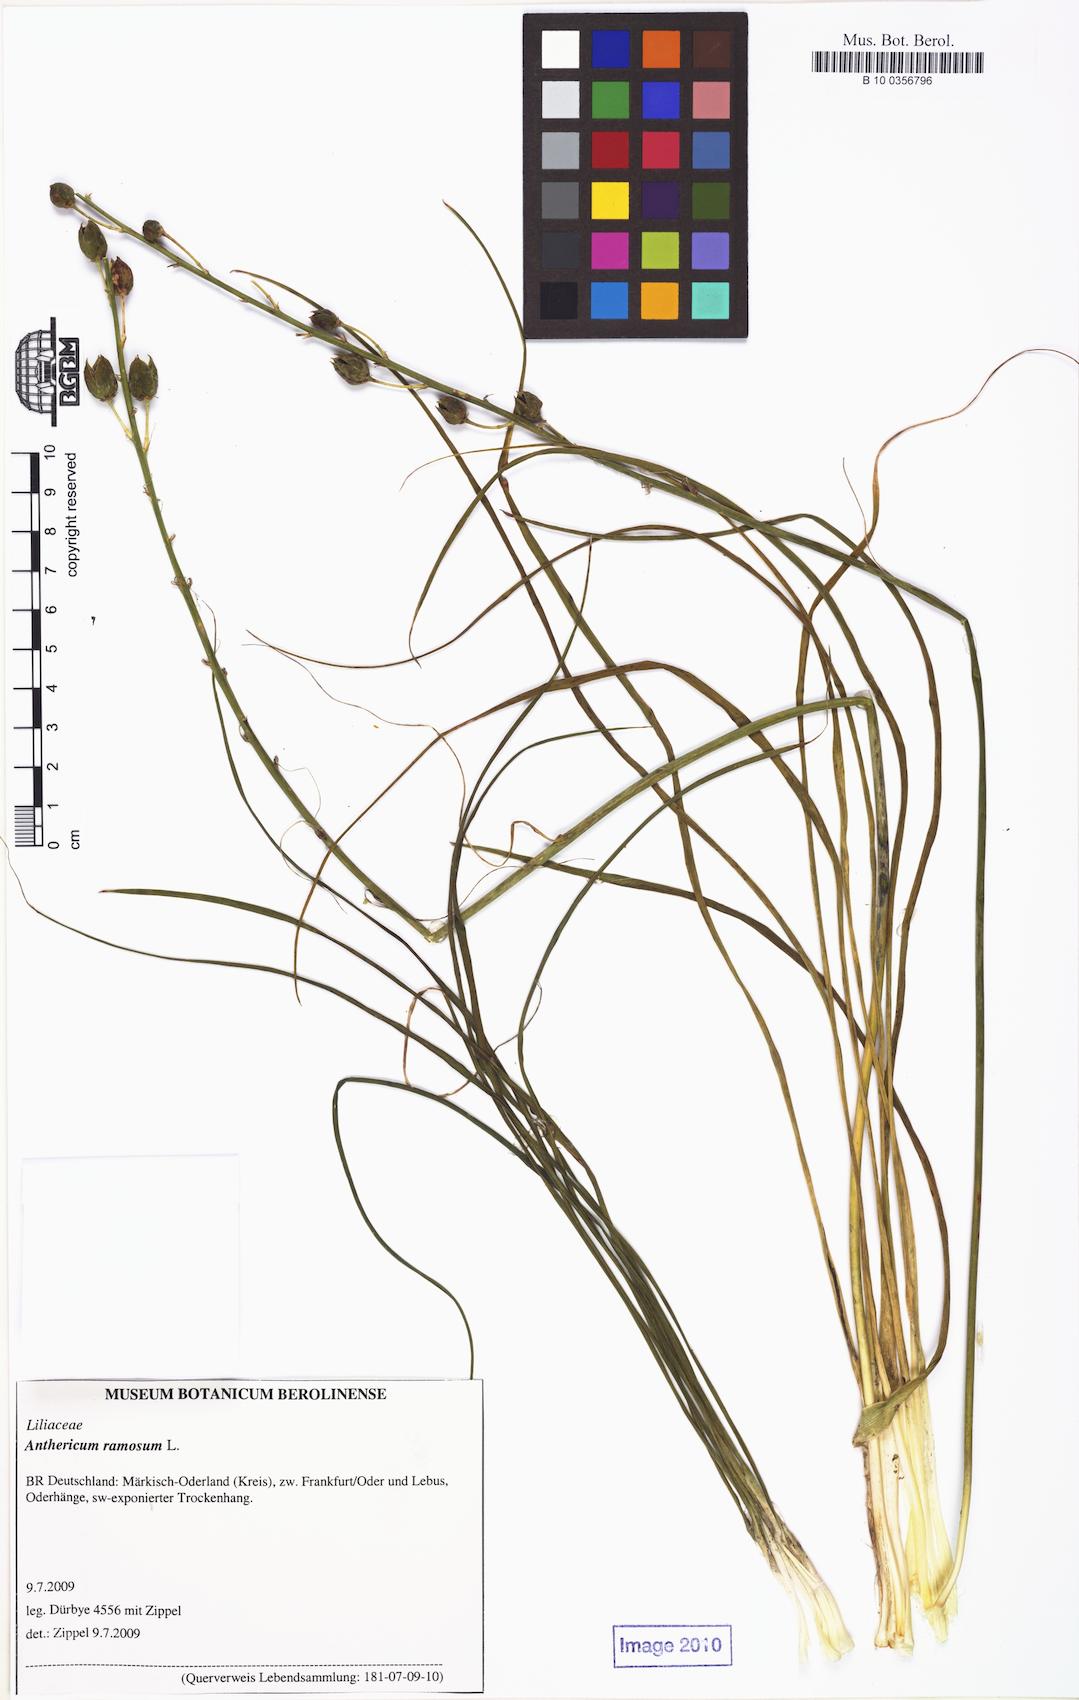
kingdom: Plantae
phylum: Tracheophyta
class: Liliopsida
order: Asparagales
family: Asparagaceae
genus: Anthericum
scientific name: Anthericum liliago
